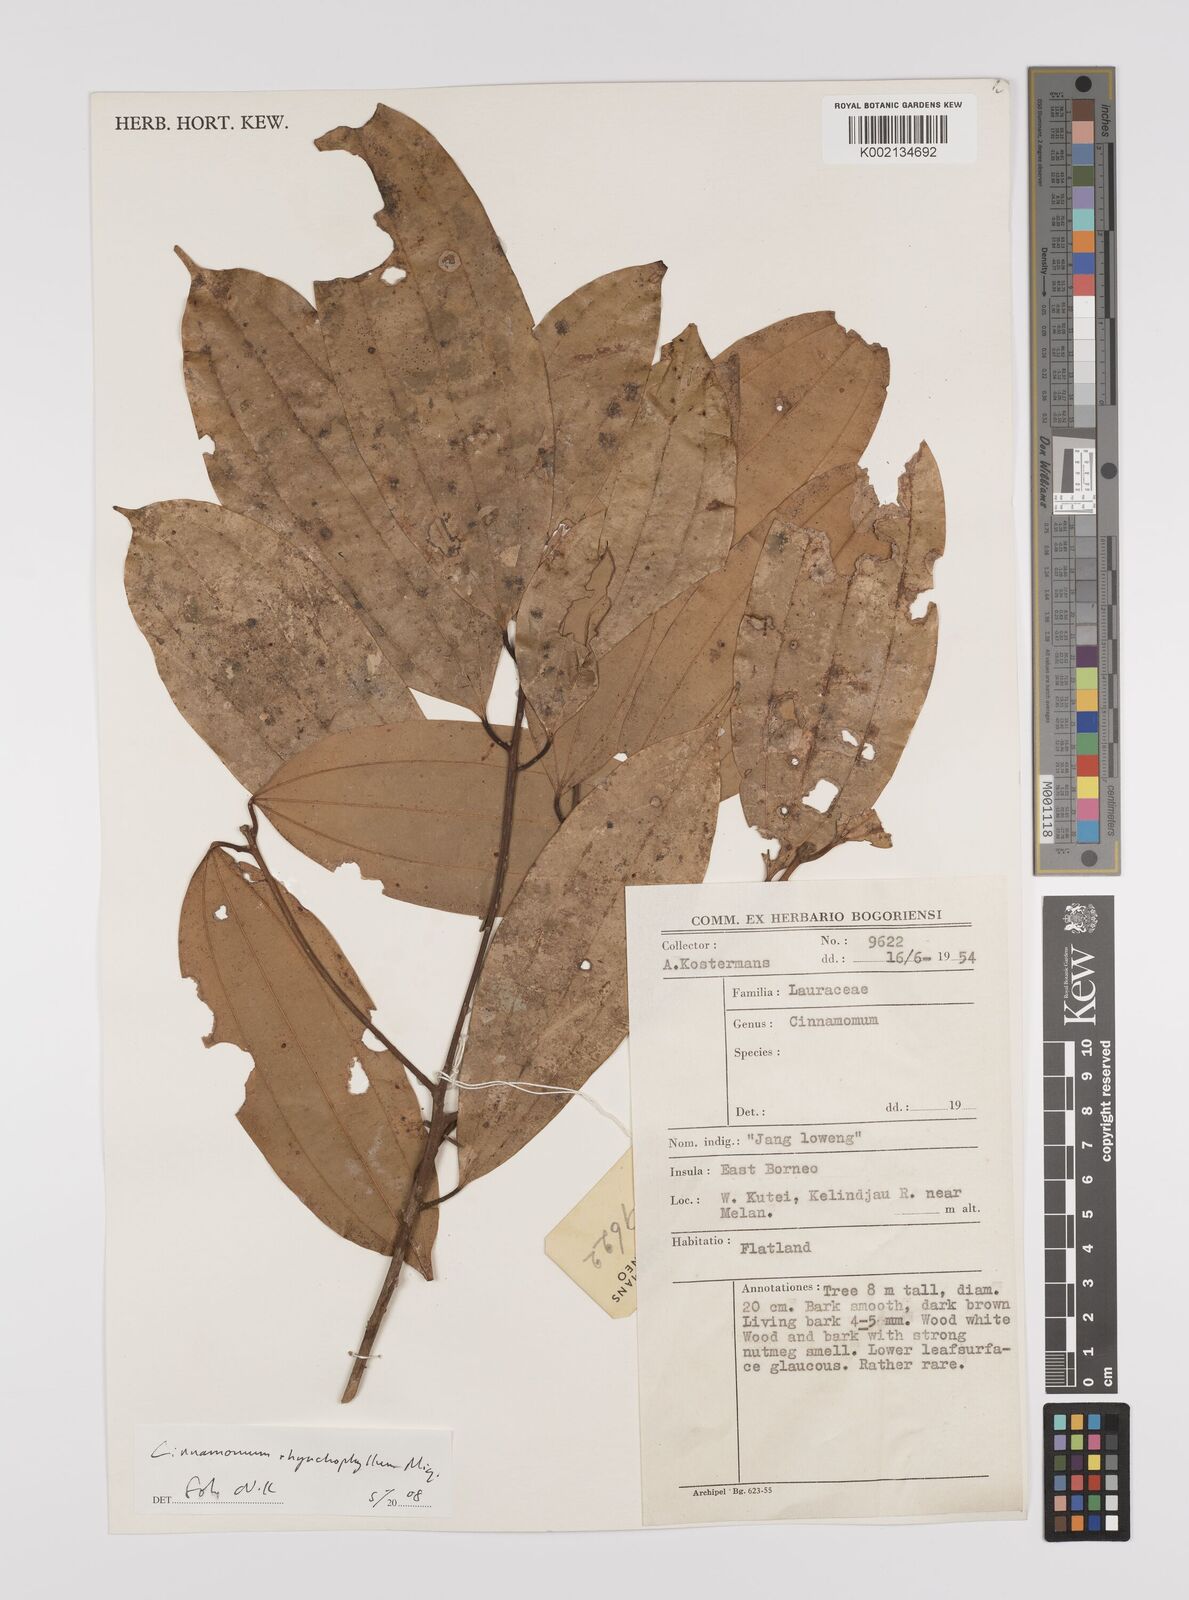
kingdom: Plantae
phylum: Tracheophyta
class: Magnoliopsida
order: Laurales
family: Lauraceae
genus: Cinnamomum
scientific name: Cinnamomum rhynchophyllum
